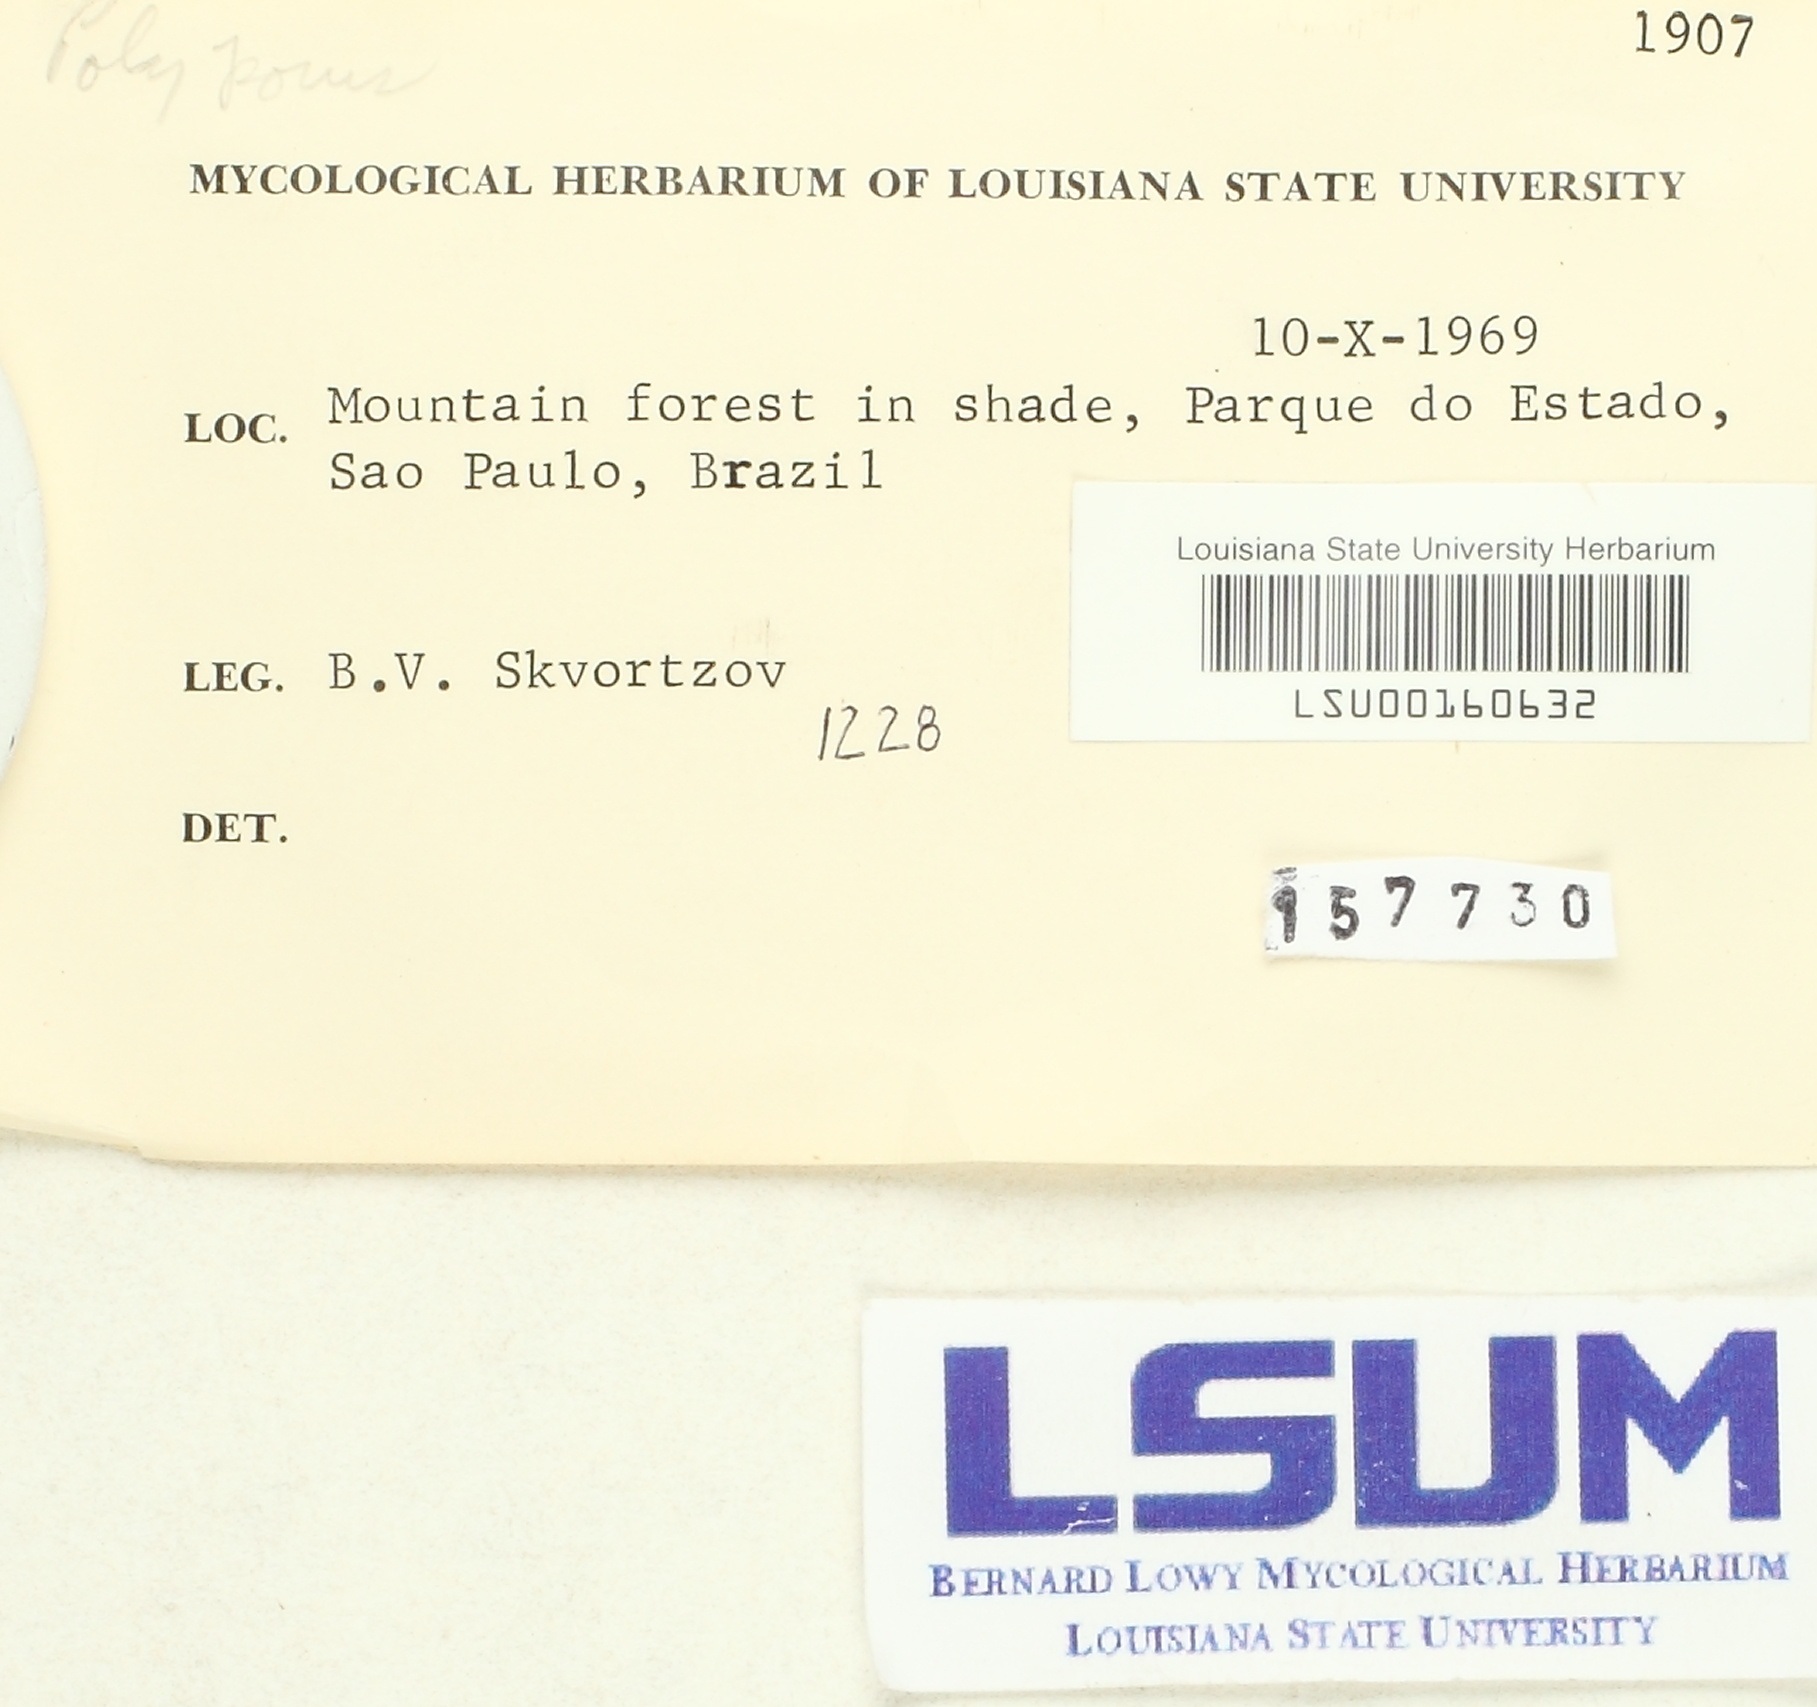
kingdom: Fungi
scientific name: Fungi
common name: Fungi
